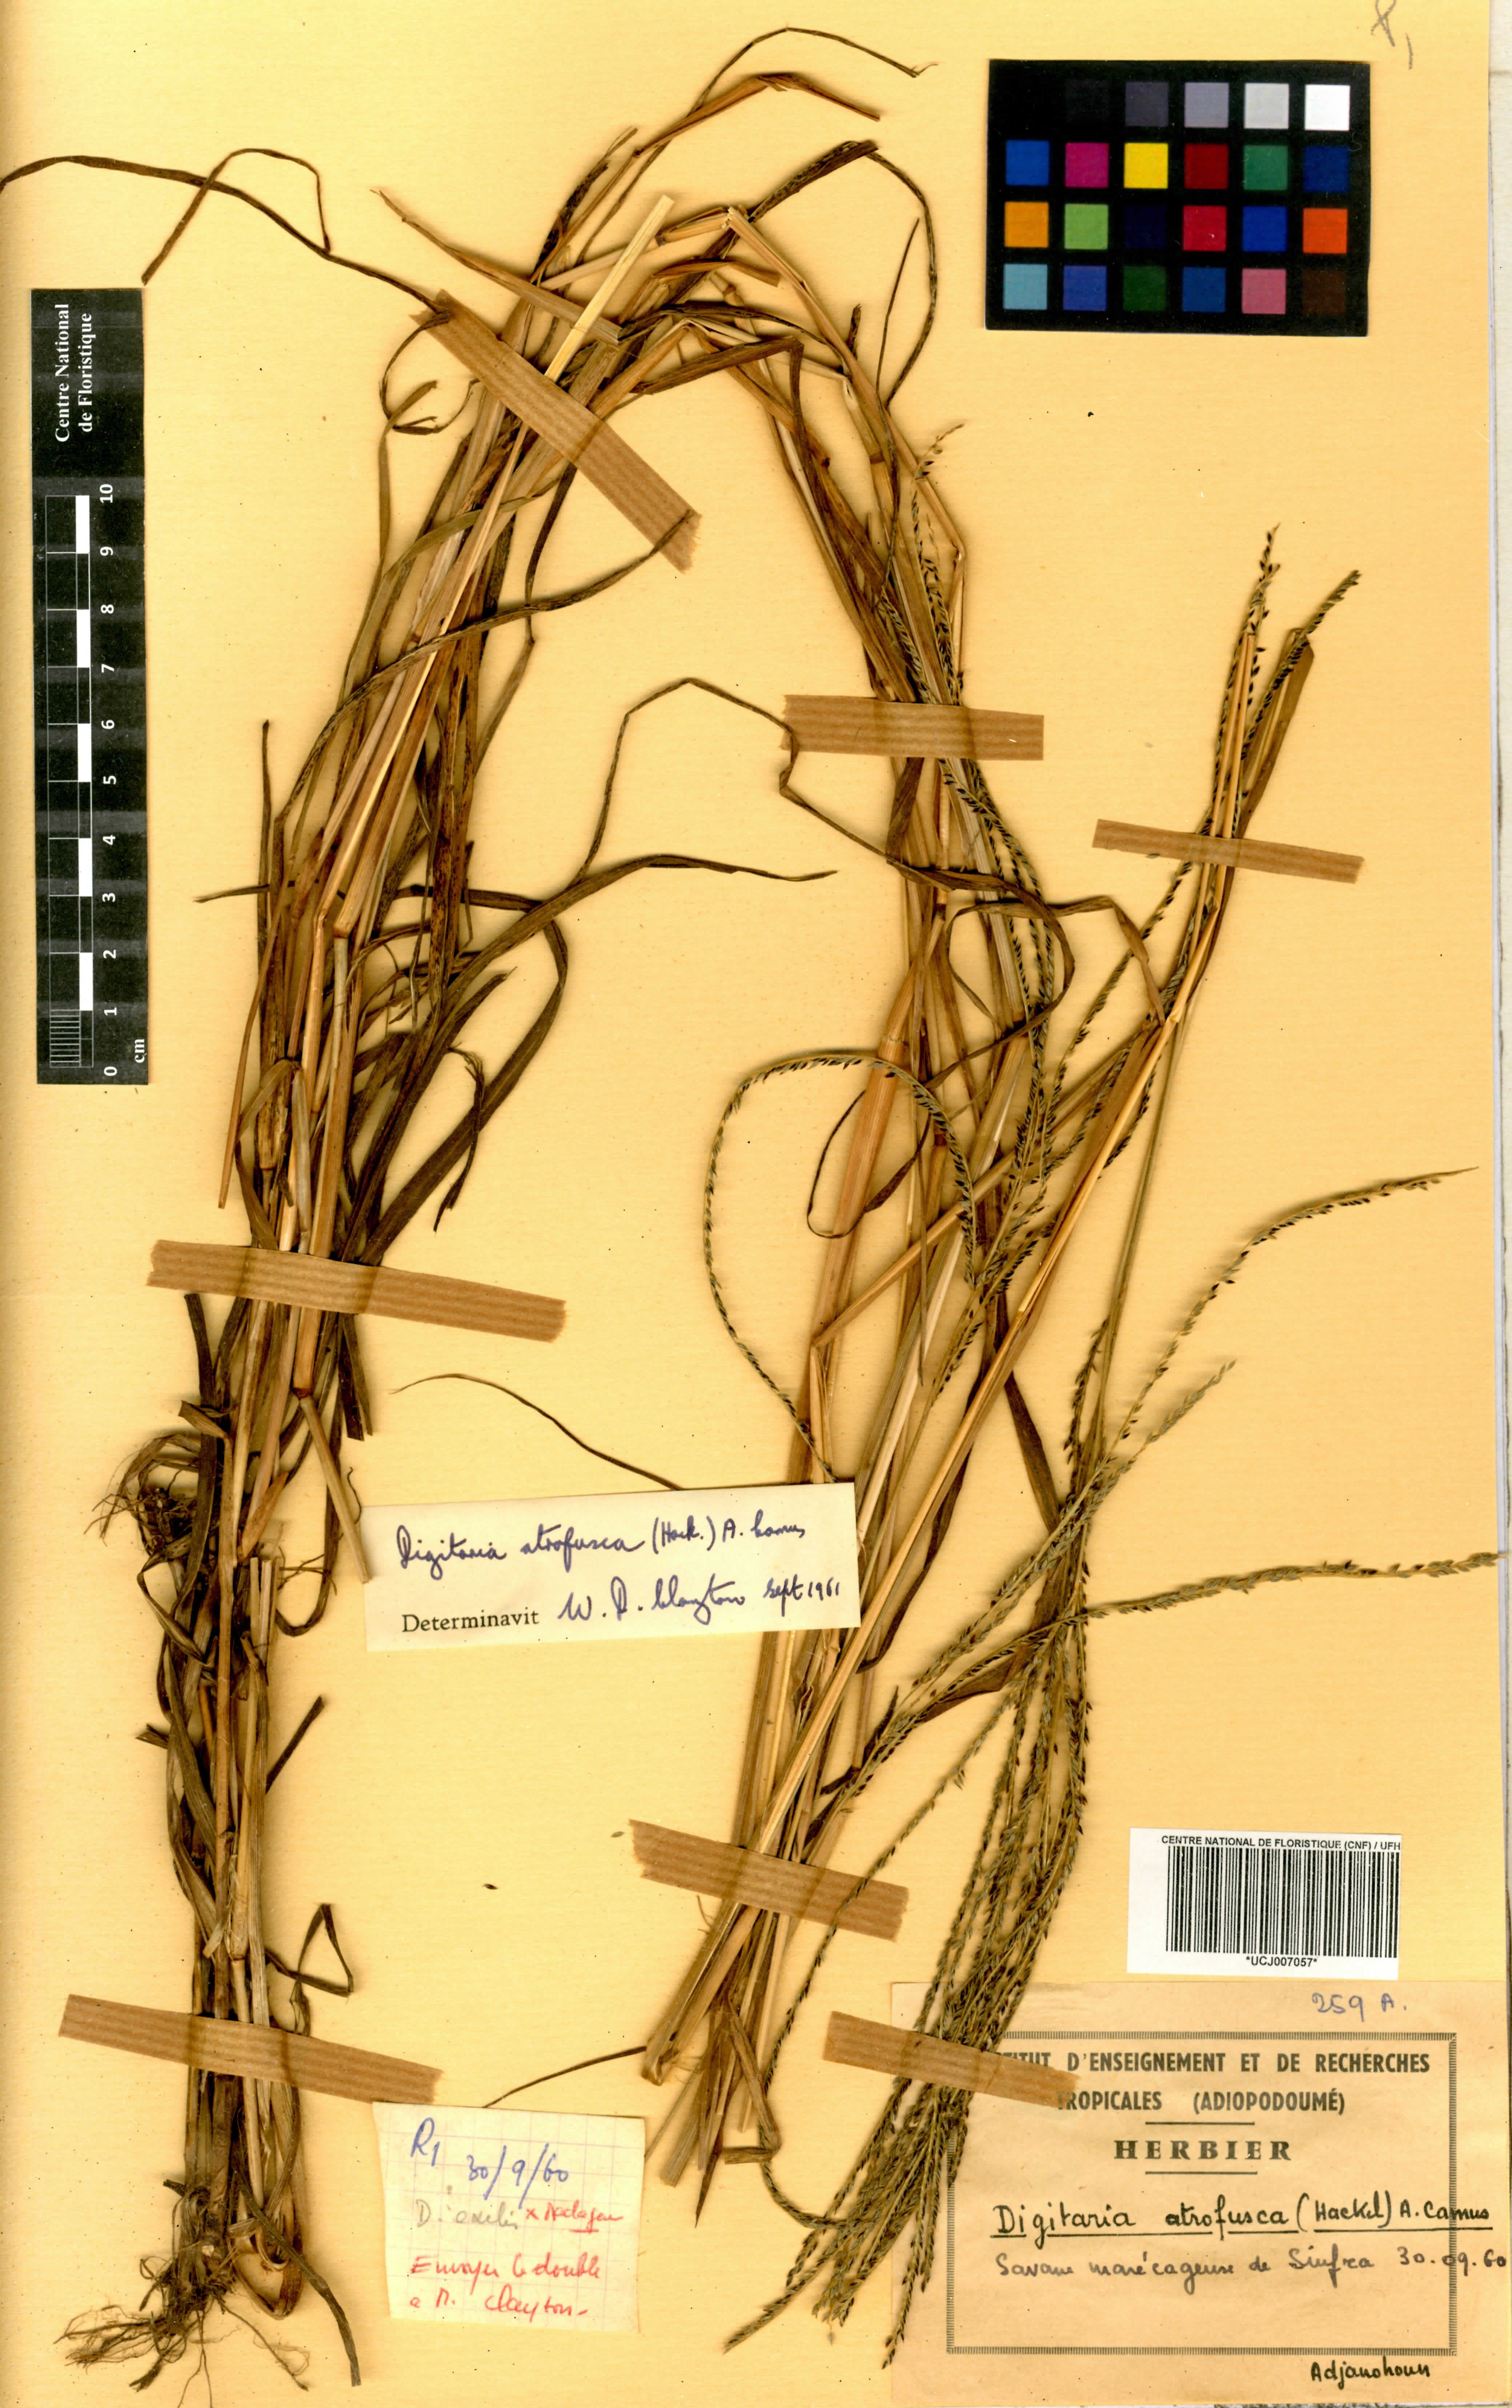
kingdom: Plantae
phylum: Tracheophyta
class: Liliopsida
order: Poales
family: Poaceae
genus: Digitaria
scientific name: Digitaria atrofusca
